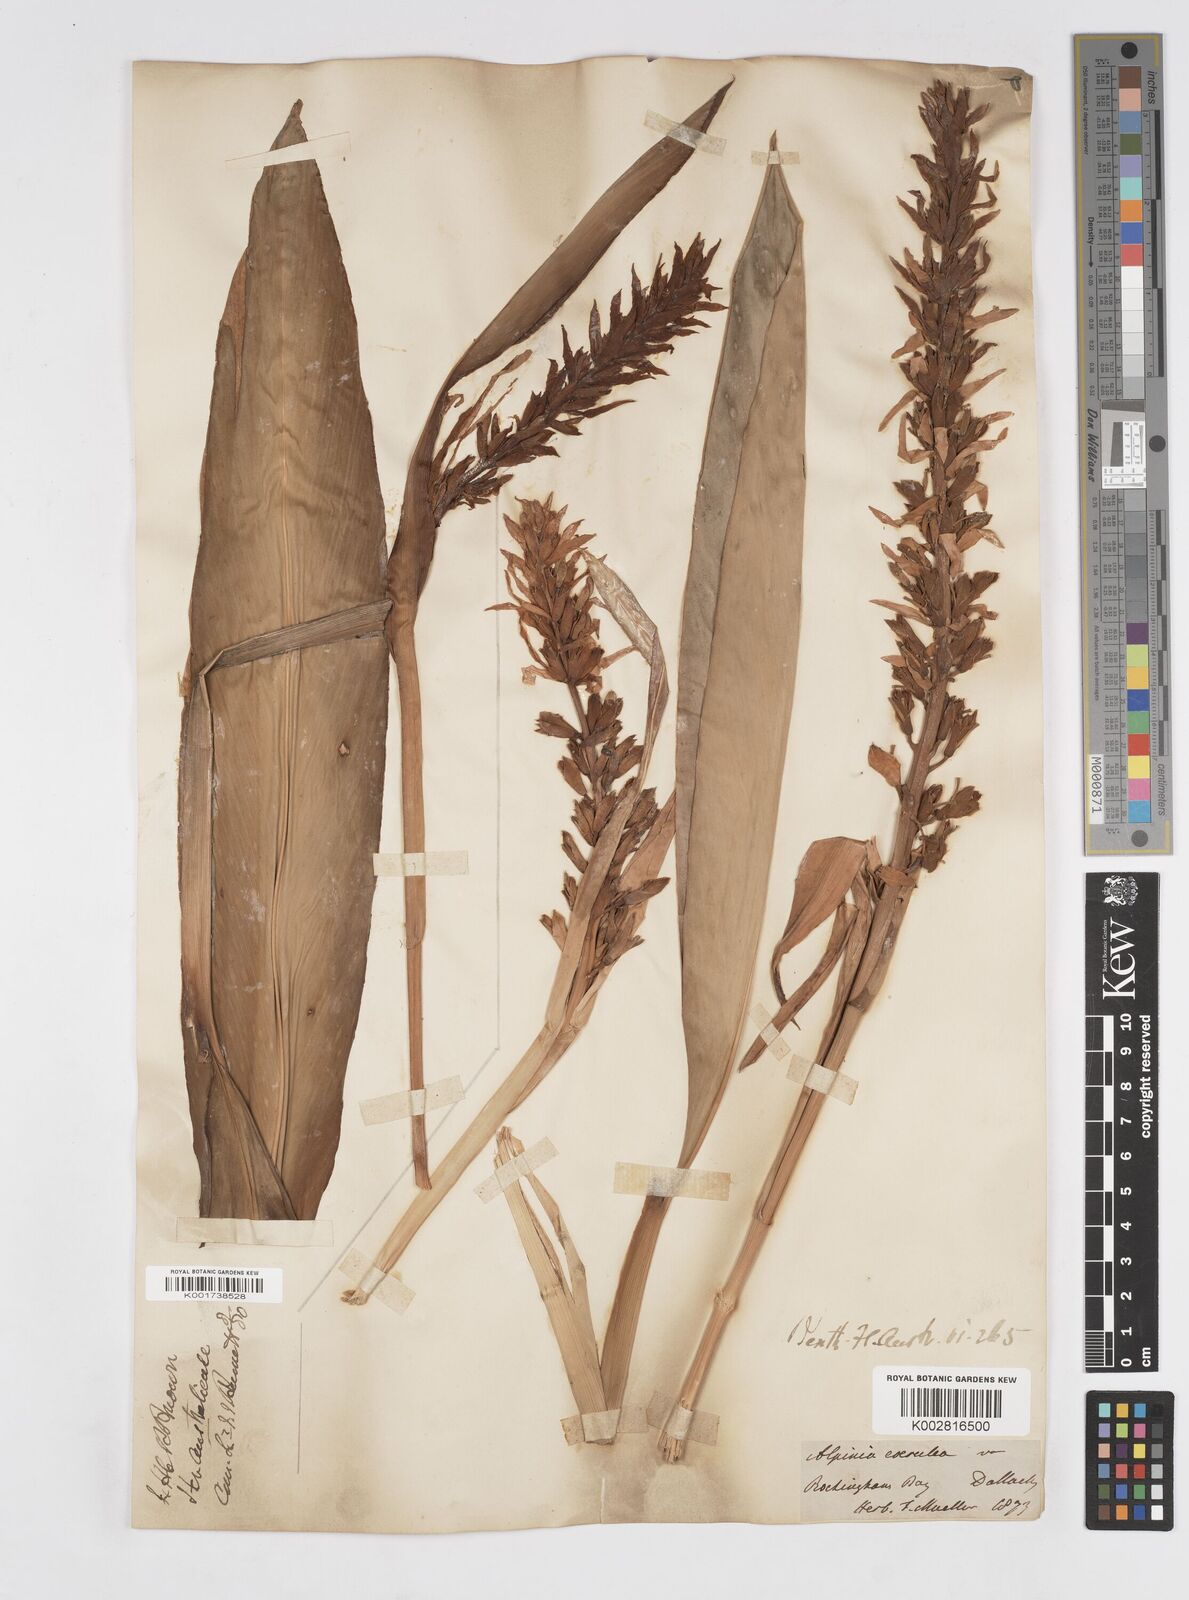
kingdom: Plantae
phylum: Tracheophyta
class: Liliopsida
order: Zingiberales
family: Zingiberaceae
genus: Alpinia
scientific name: Alpinia
